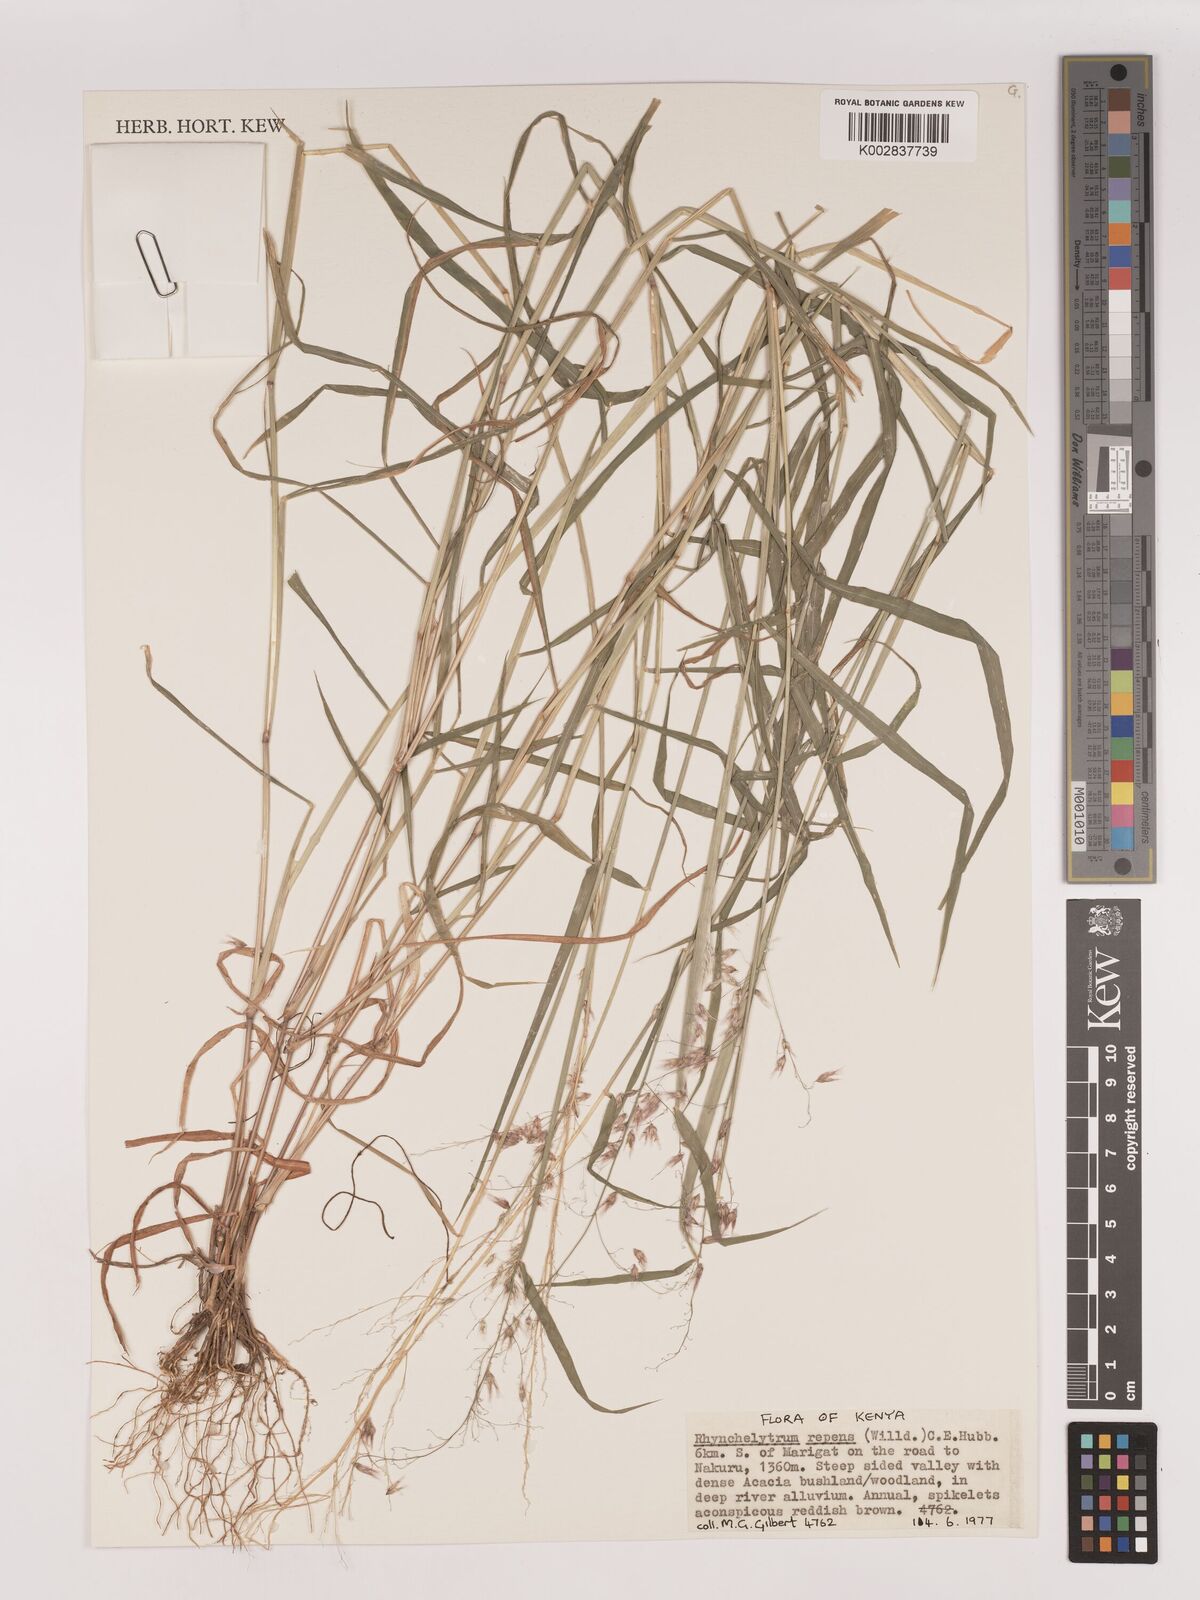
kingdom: Plantae
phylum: Tracheophyta
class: Liliopsida
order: Poales
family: Poaceae
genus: Melinis
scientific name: Melinis repens
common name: Rose natal grass
